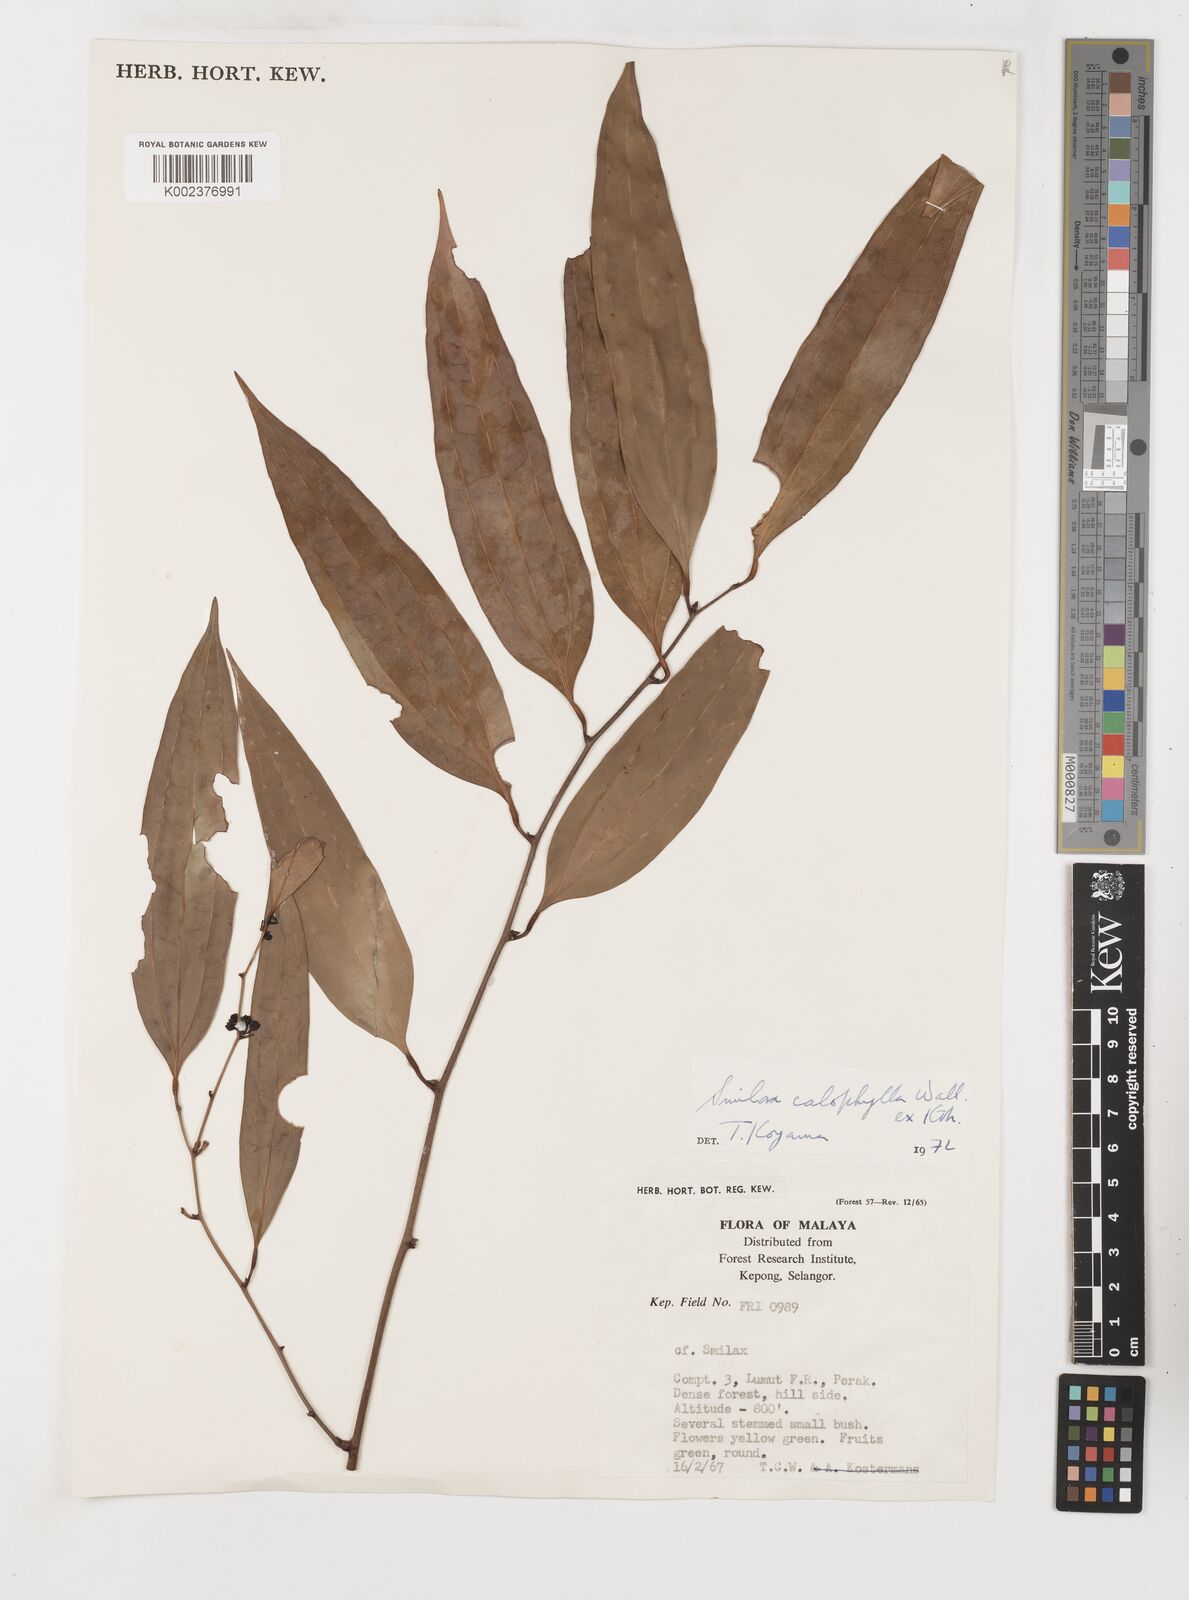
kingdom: Plantae
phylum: Tracheophyta
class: Liliopsida
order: Liliales
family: Smilacaceae
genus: Smilax
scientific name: Smilax calophylla
